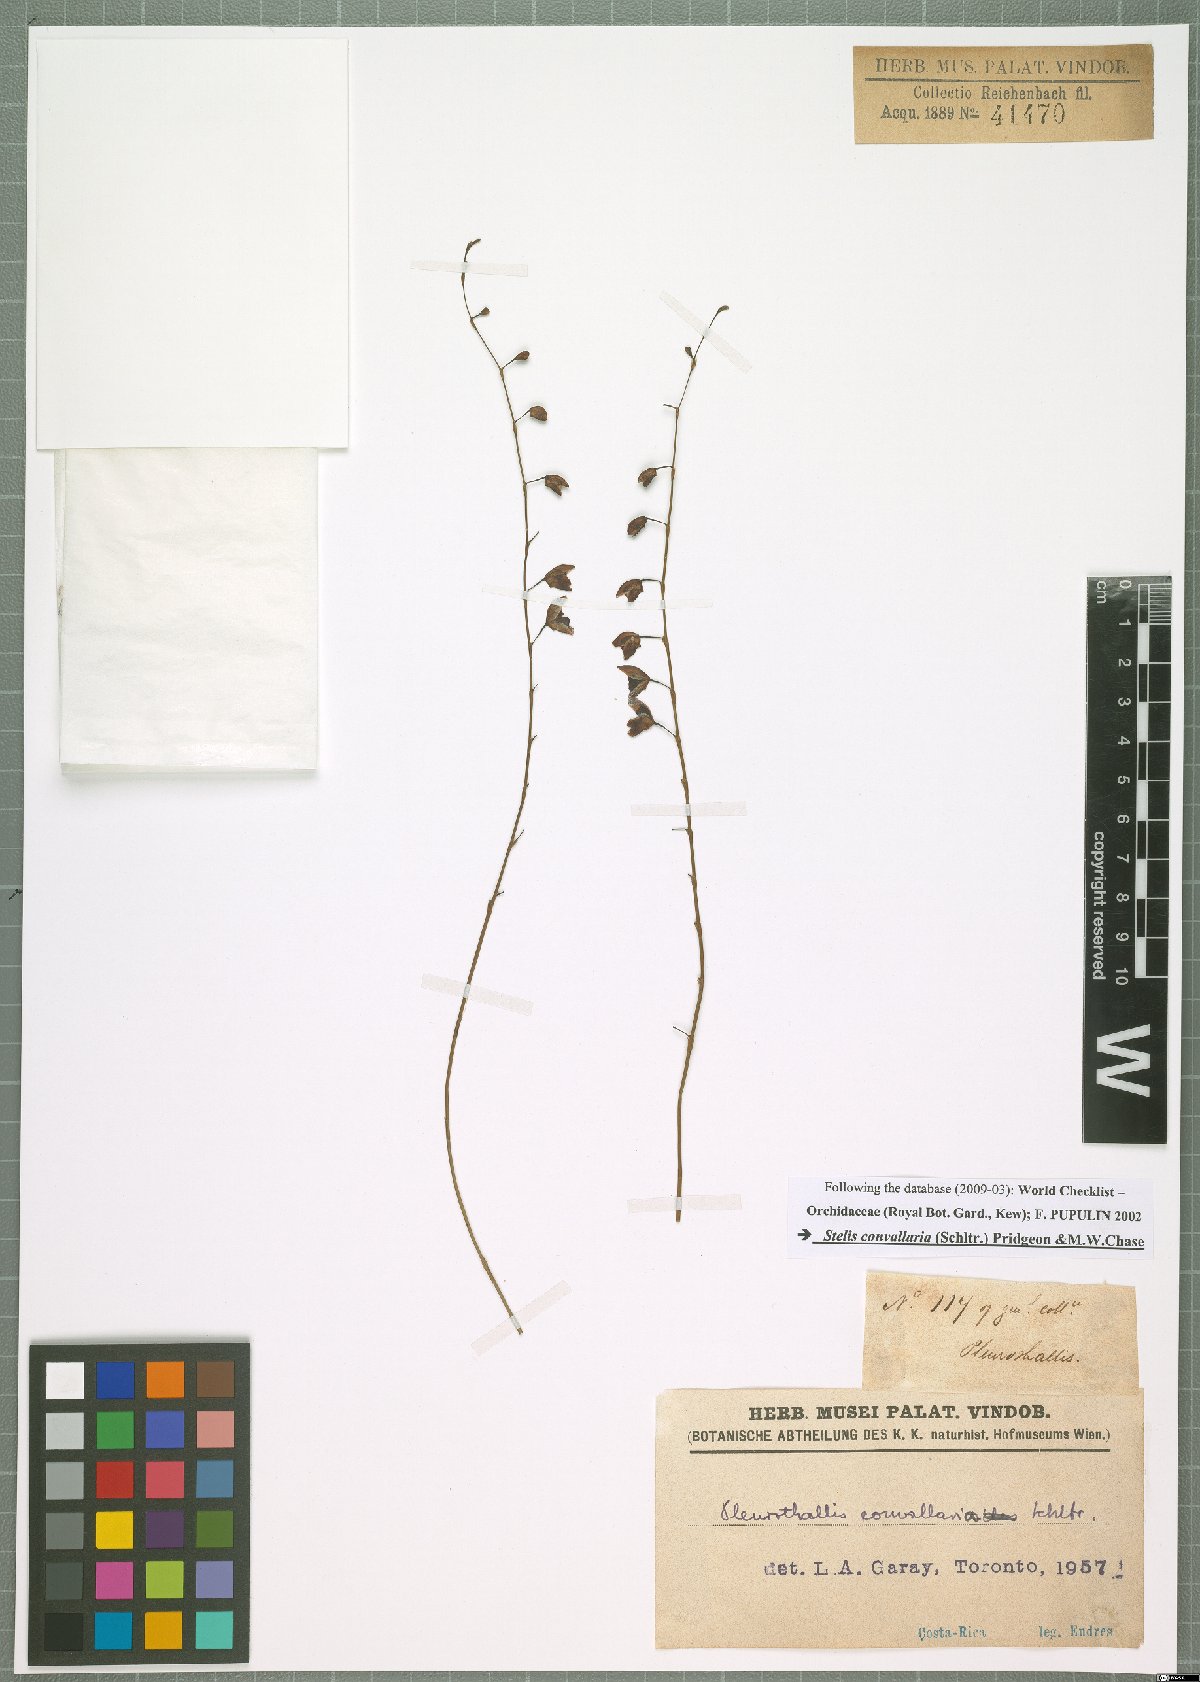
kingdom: Plantae
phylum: Tracheophyta
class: Liliopsida
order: Asparagales
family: Orchidaceae
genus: Stelis
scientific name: Stelis convallaria
